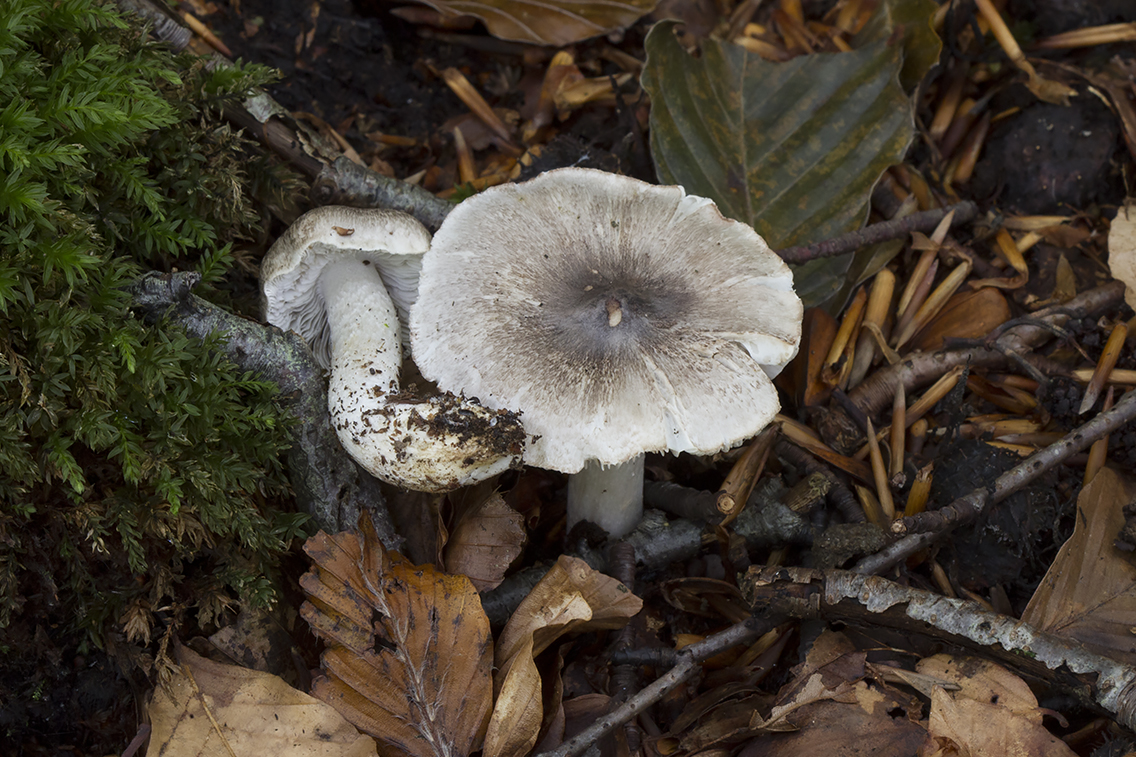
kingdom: Fungi
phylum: Basidiomycota
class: Agaricomycetes
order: Agaricales
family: Tricholomataceae
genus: Tricholoma
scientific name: Tricholoma sciodes
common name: stribet ridderhat
